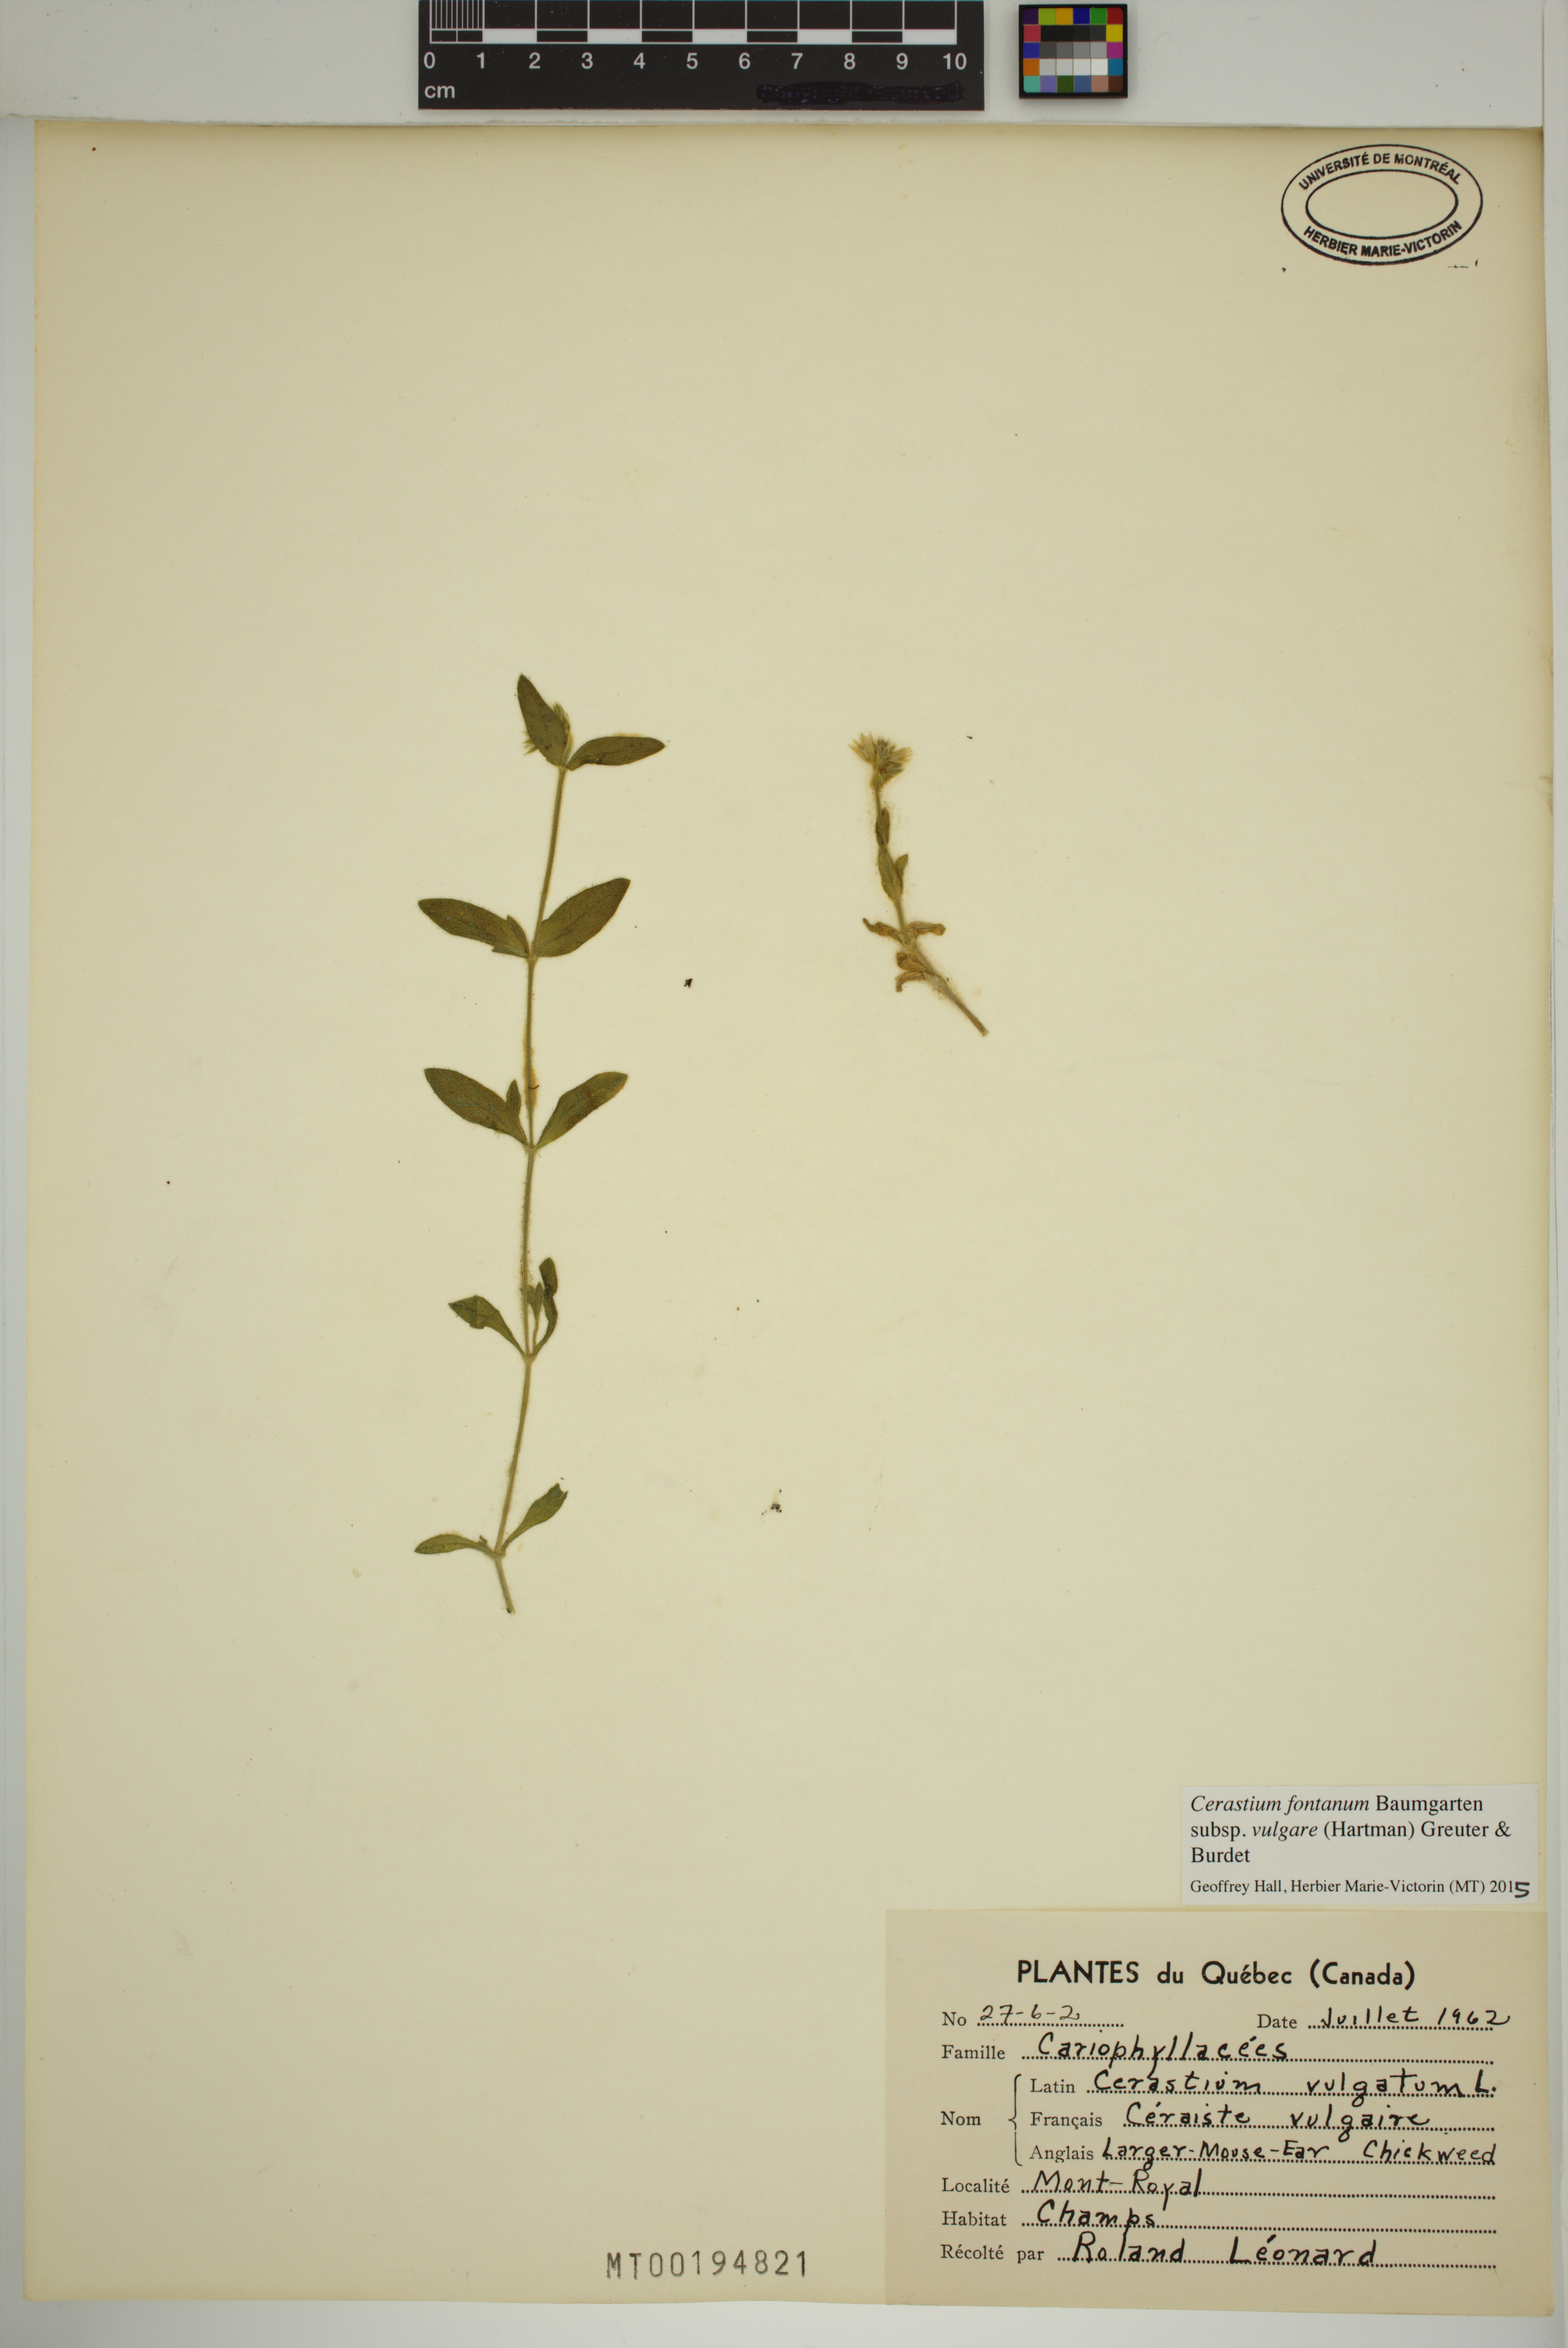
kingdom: Plantae
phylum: Tracheophyta
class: Magnoliopsida
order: Caryophyllales
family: Caryophyllaceae
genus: Cerastium
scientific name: Cerastium holosteoides
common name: Big chickweed
